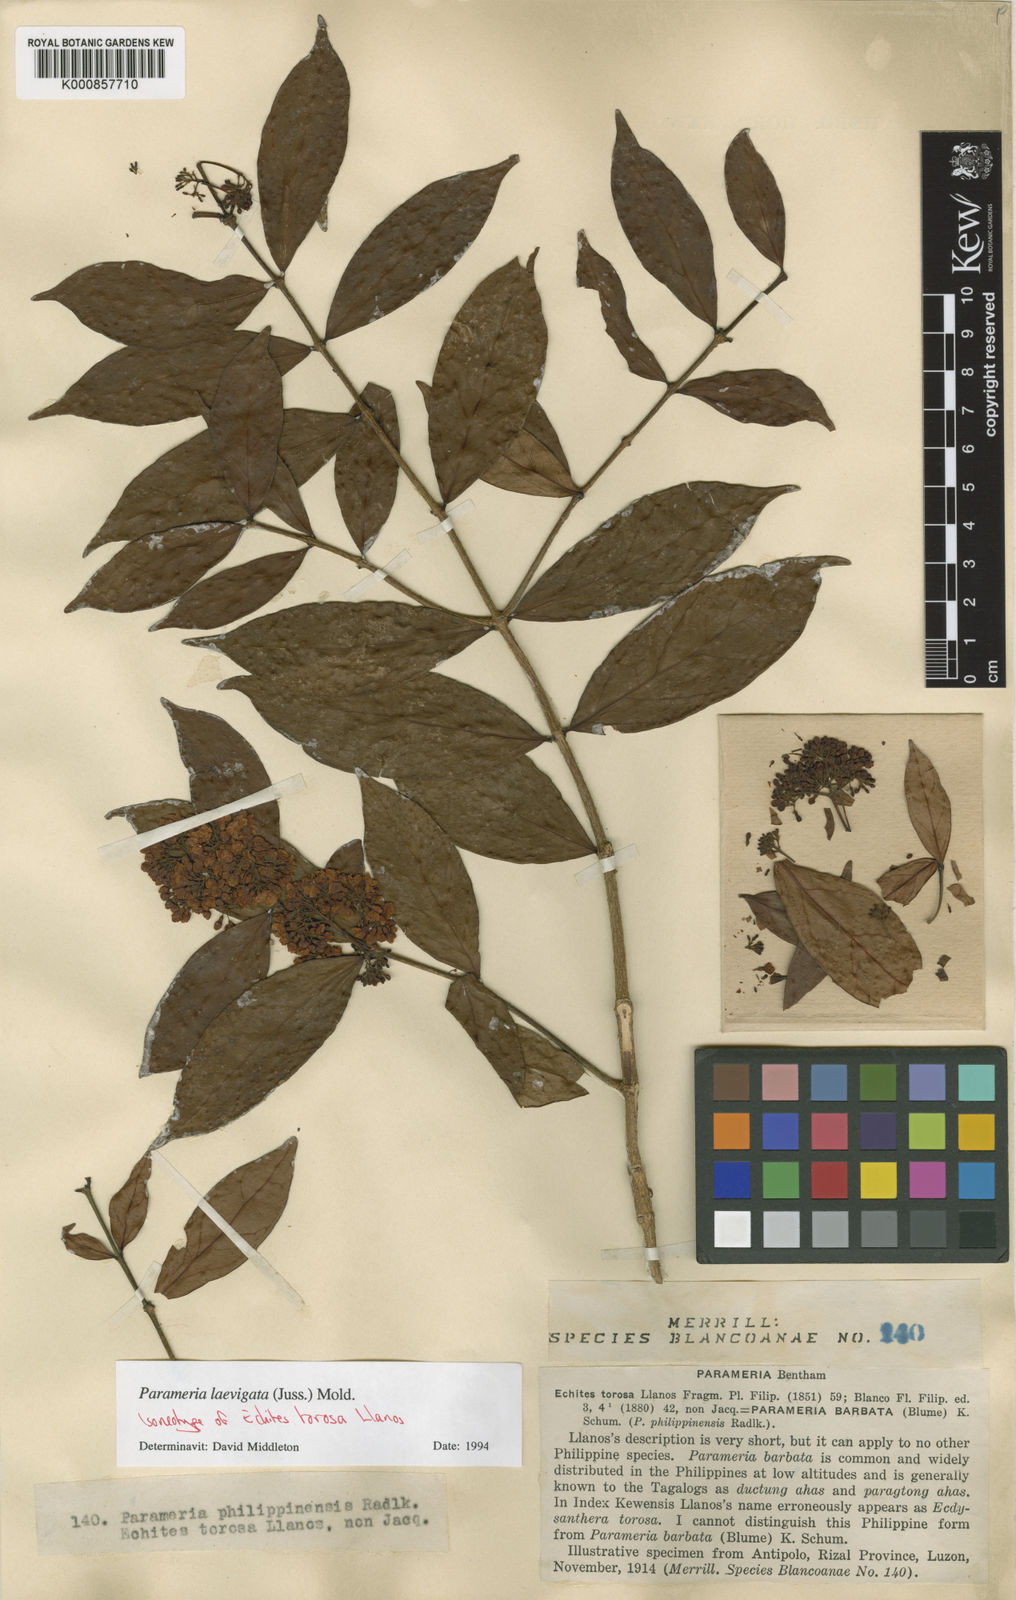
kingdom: Plantae
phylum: Tracheophyta
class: Magnoliopsida
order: Gentianales
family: Apocynaceae
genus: Urceola
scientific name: Urceola laevigata
